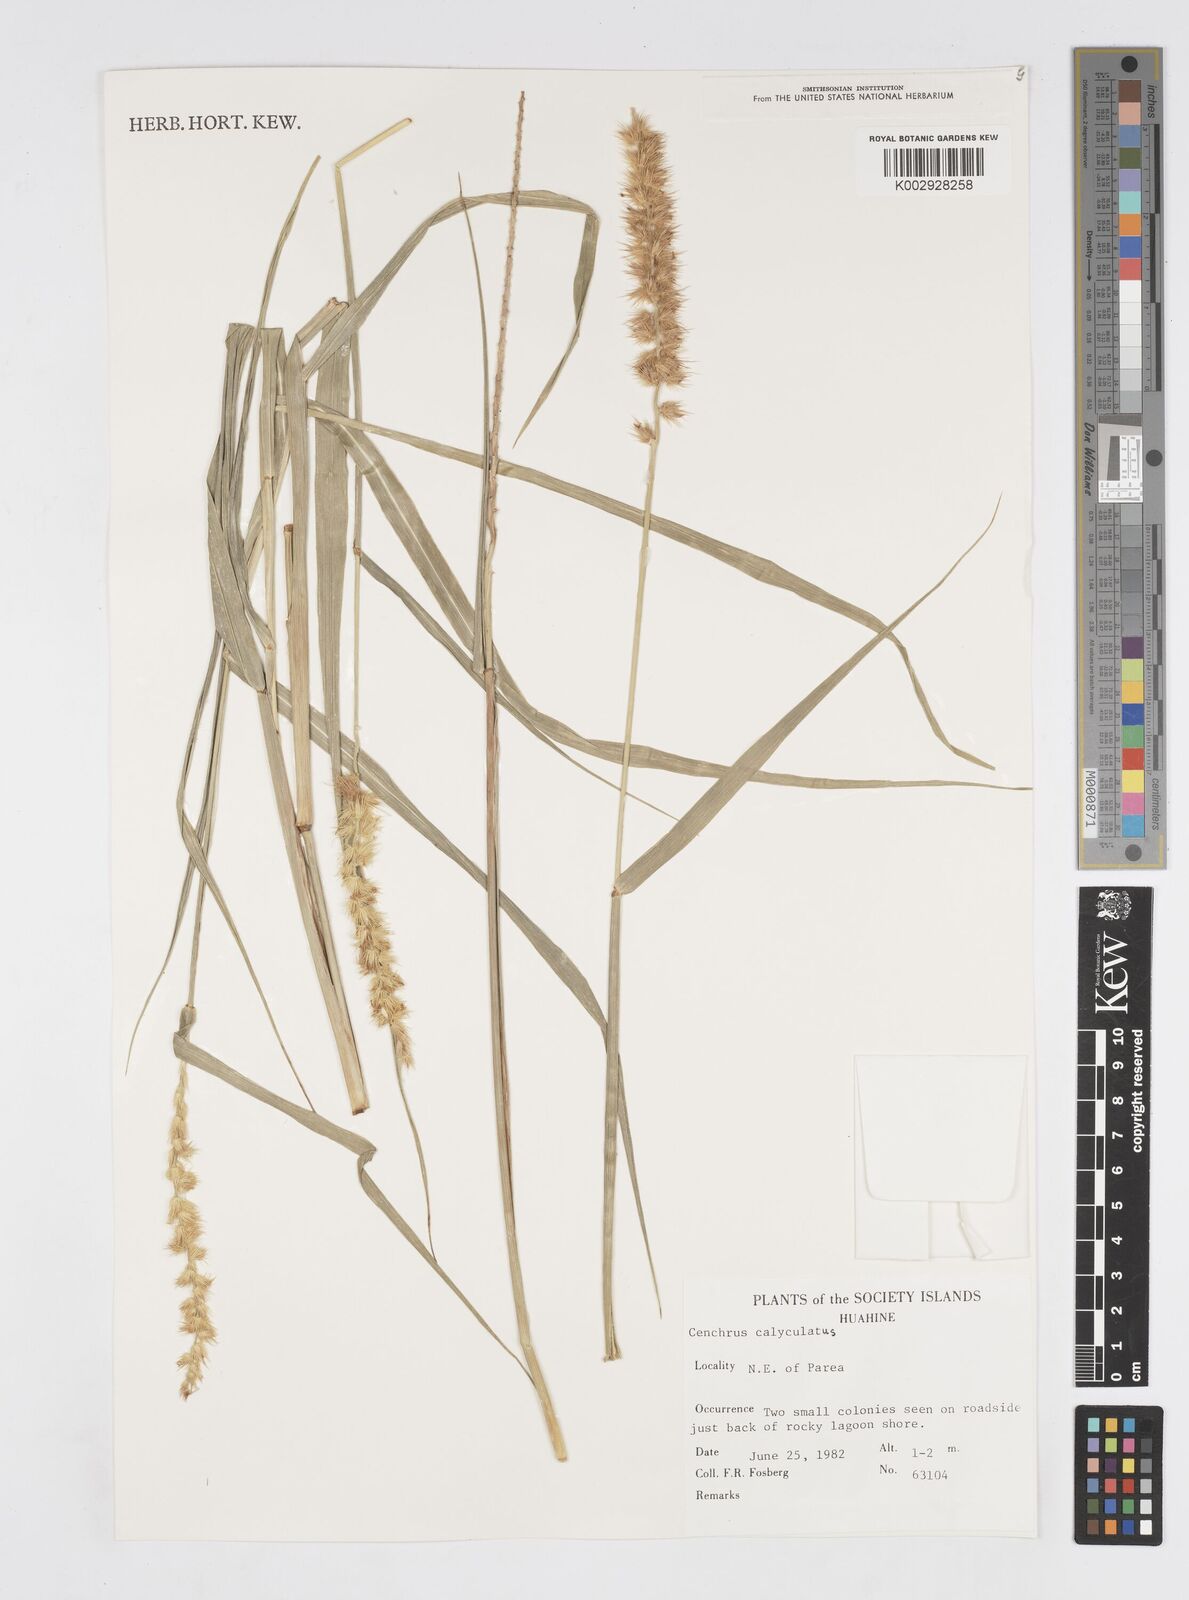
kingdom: Plantae
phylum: Tracheophyta
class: Liliopsida
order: Poales
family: Poaceae
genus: Cenchrus
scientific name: Cenchrus caliculatus
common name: Large bur grass
